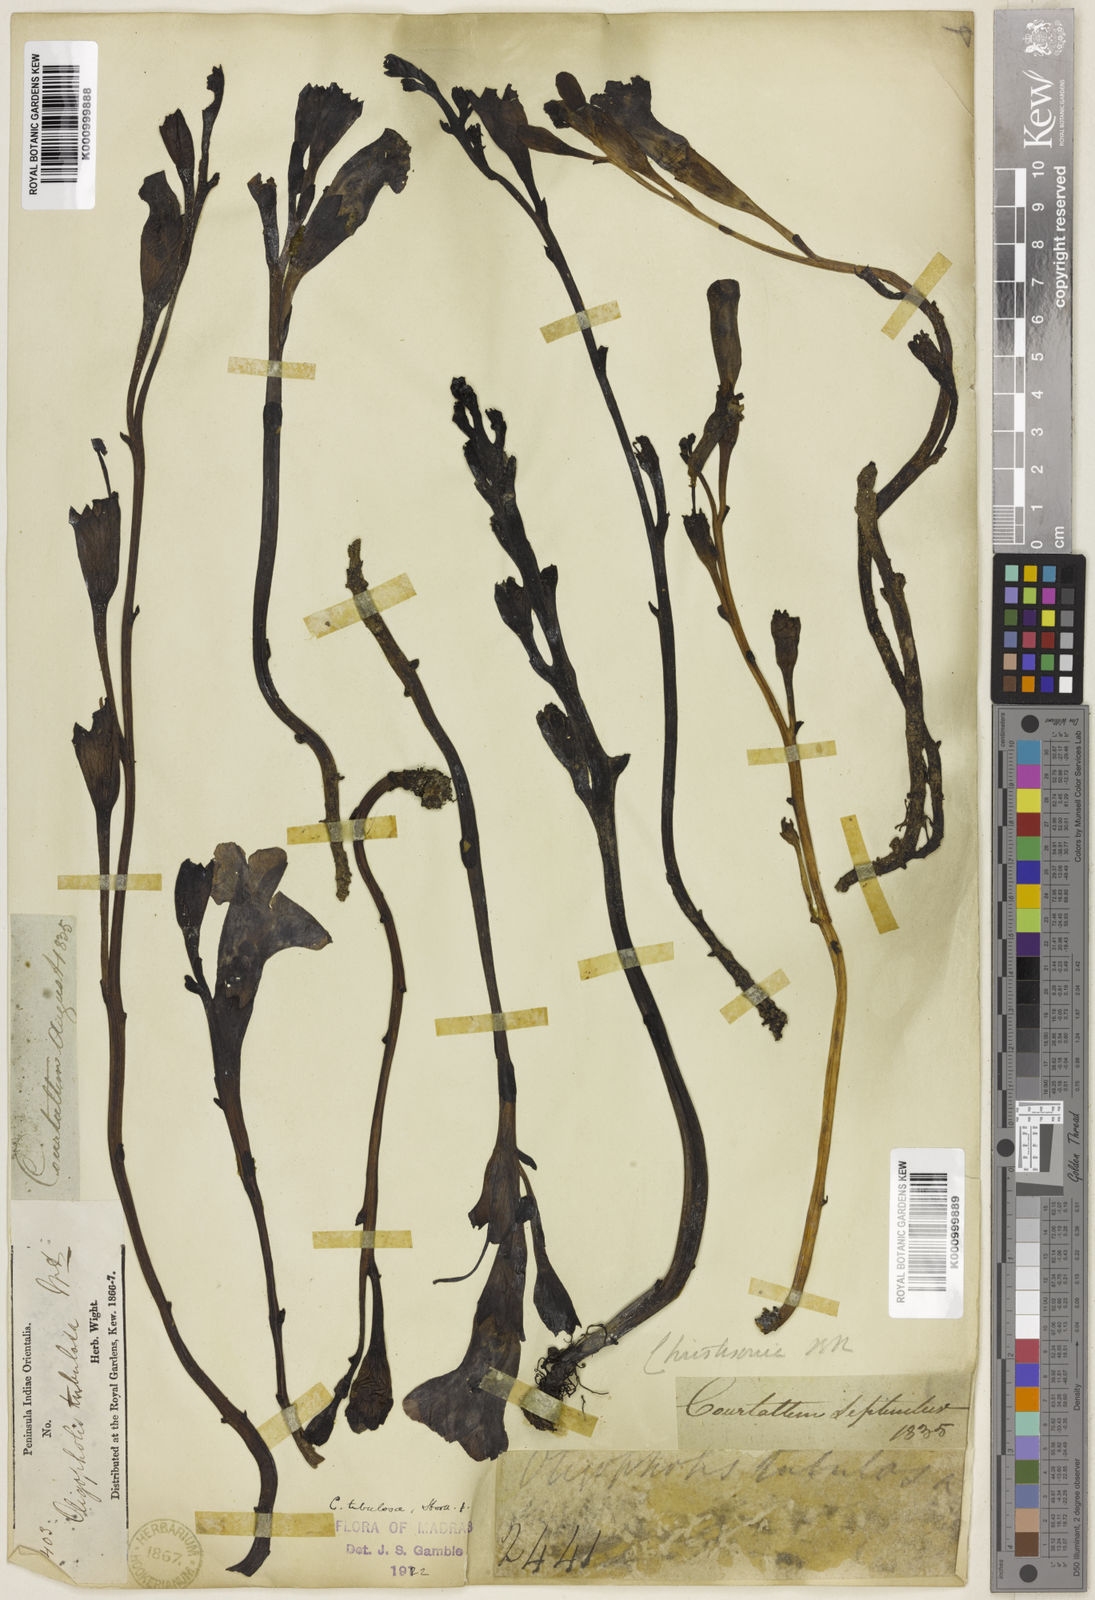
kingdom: Plantae
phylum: Tracheophyta
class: Magnoliopsida
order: Lamiales
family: Orobanchaceae
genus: Christisonia
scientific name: Christisonia tubulosa
